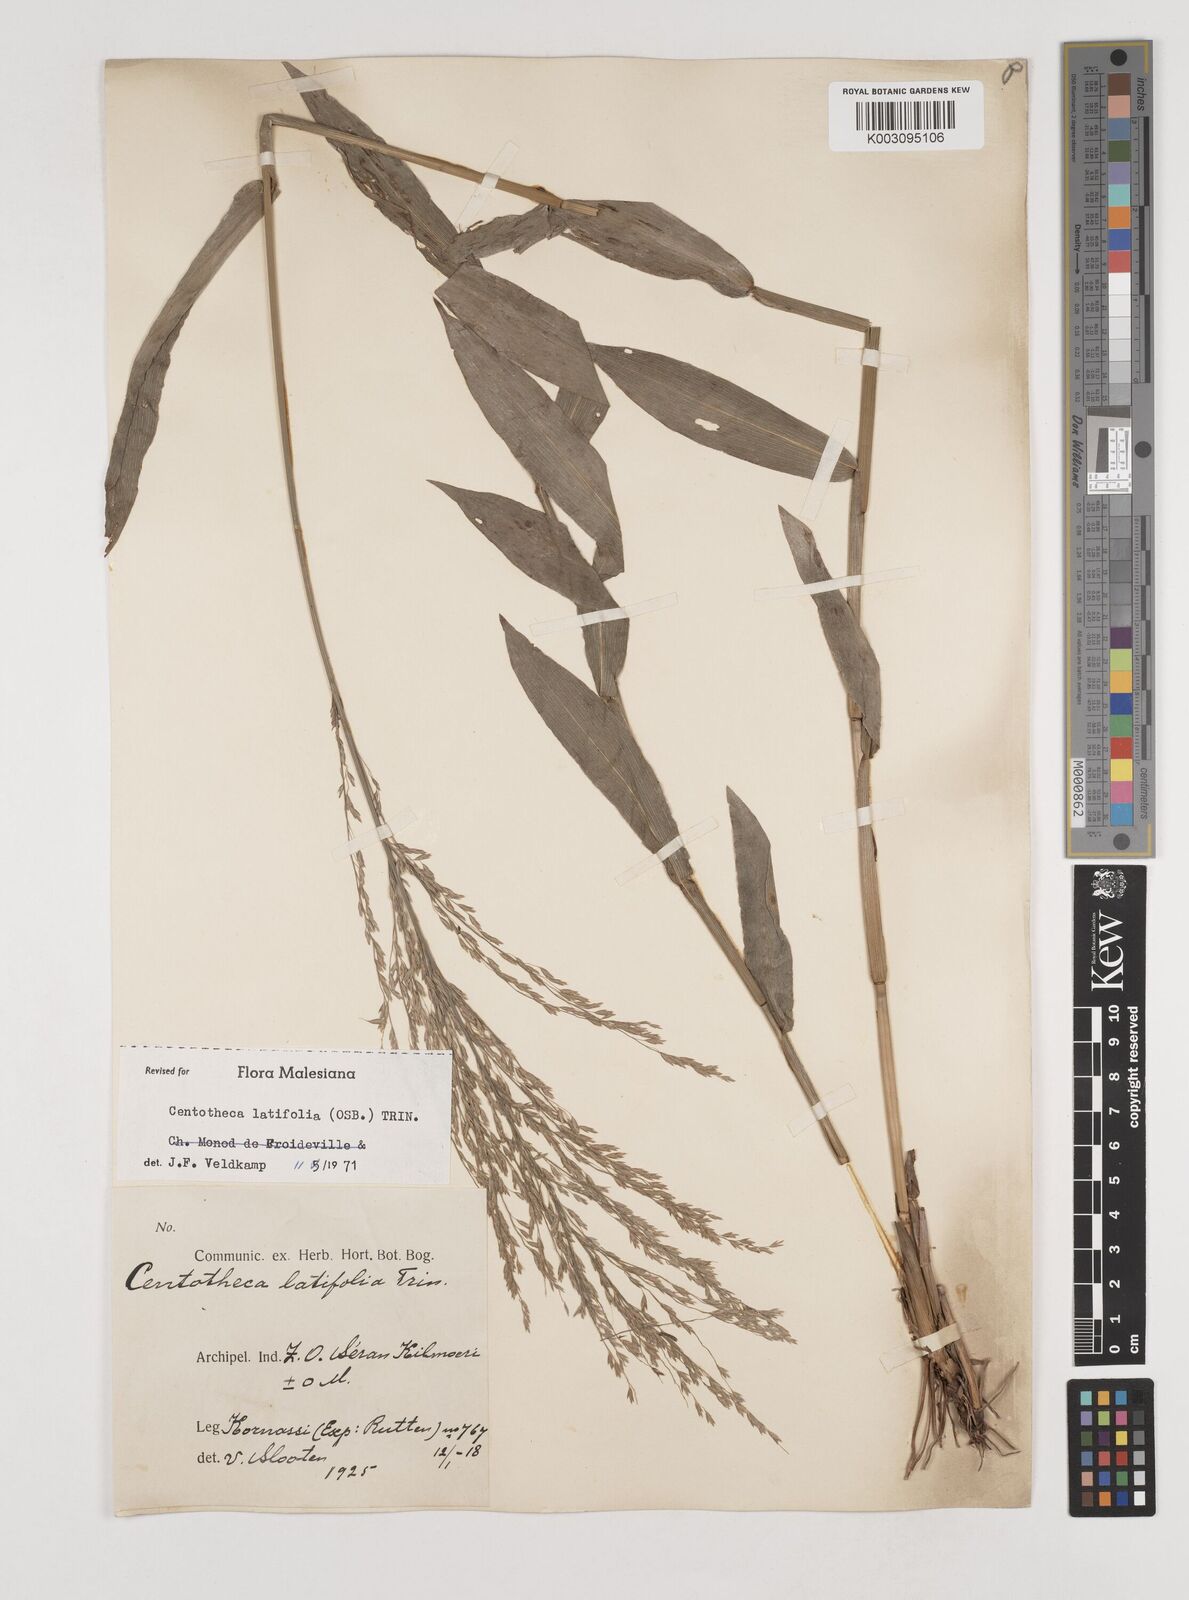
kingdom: Plantae
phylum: Tracheophyta
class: Liliopsida
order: Poales
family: Poaceae
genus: Centotheca
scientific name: Centotheca lappacea
